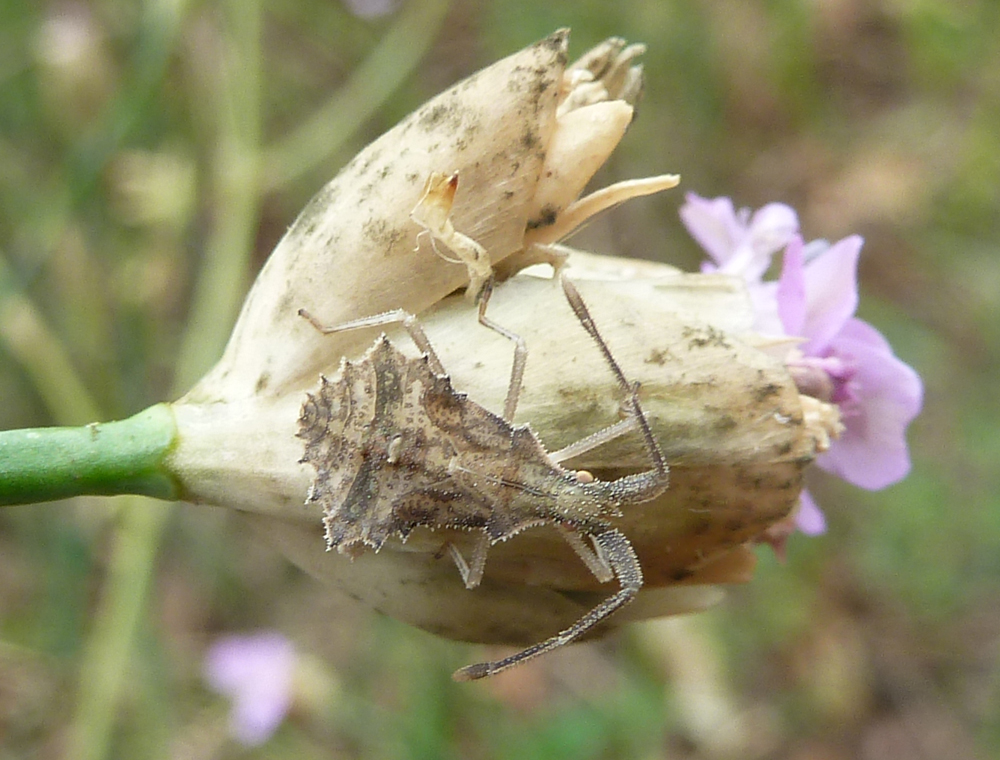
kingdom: Animalia
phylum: Arthropoda
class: Insecta
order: Hemiptera
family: Coreidae
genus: Syromastus
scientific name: Syromastus rhombeus
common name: Rhombic leatherbug
